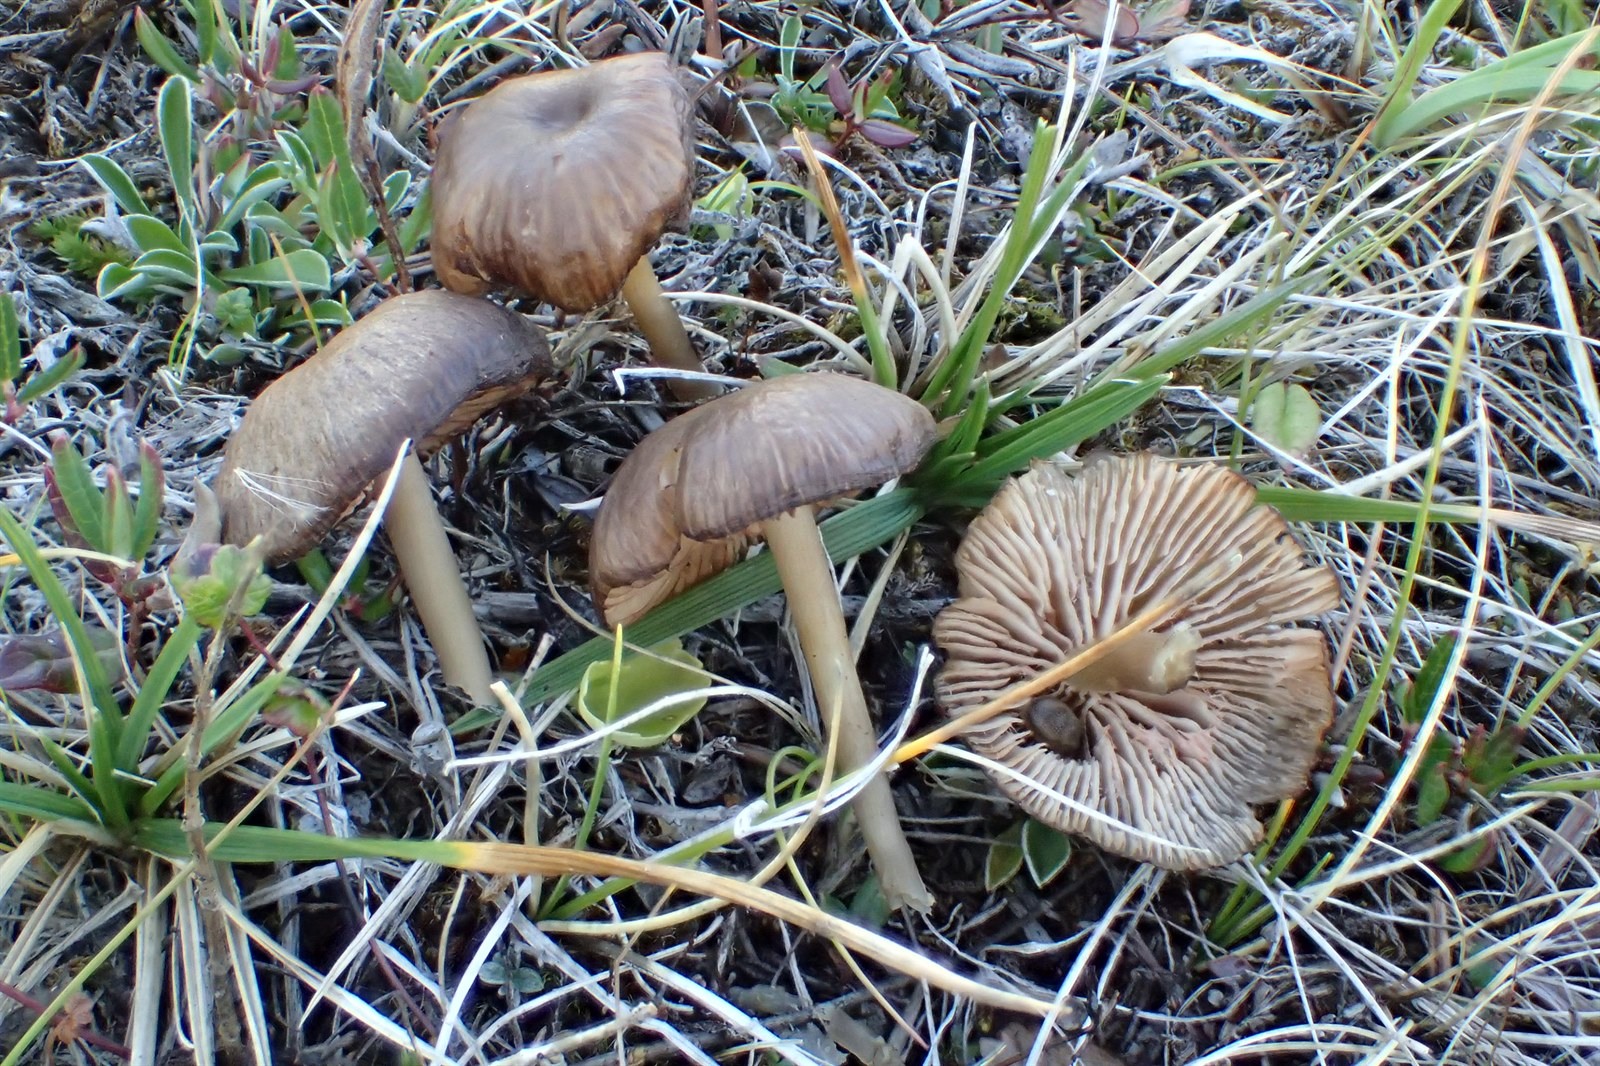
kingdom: Fungi
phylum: Basidiomycota
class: Agaricomycetes
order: Agaricales
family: Entolomataceae
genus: Entoloma
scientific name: Entoloma minutigranulosum
